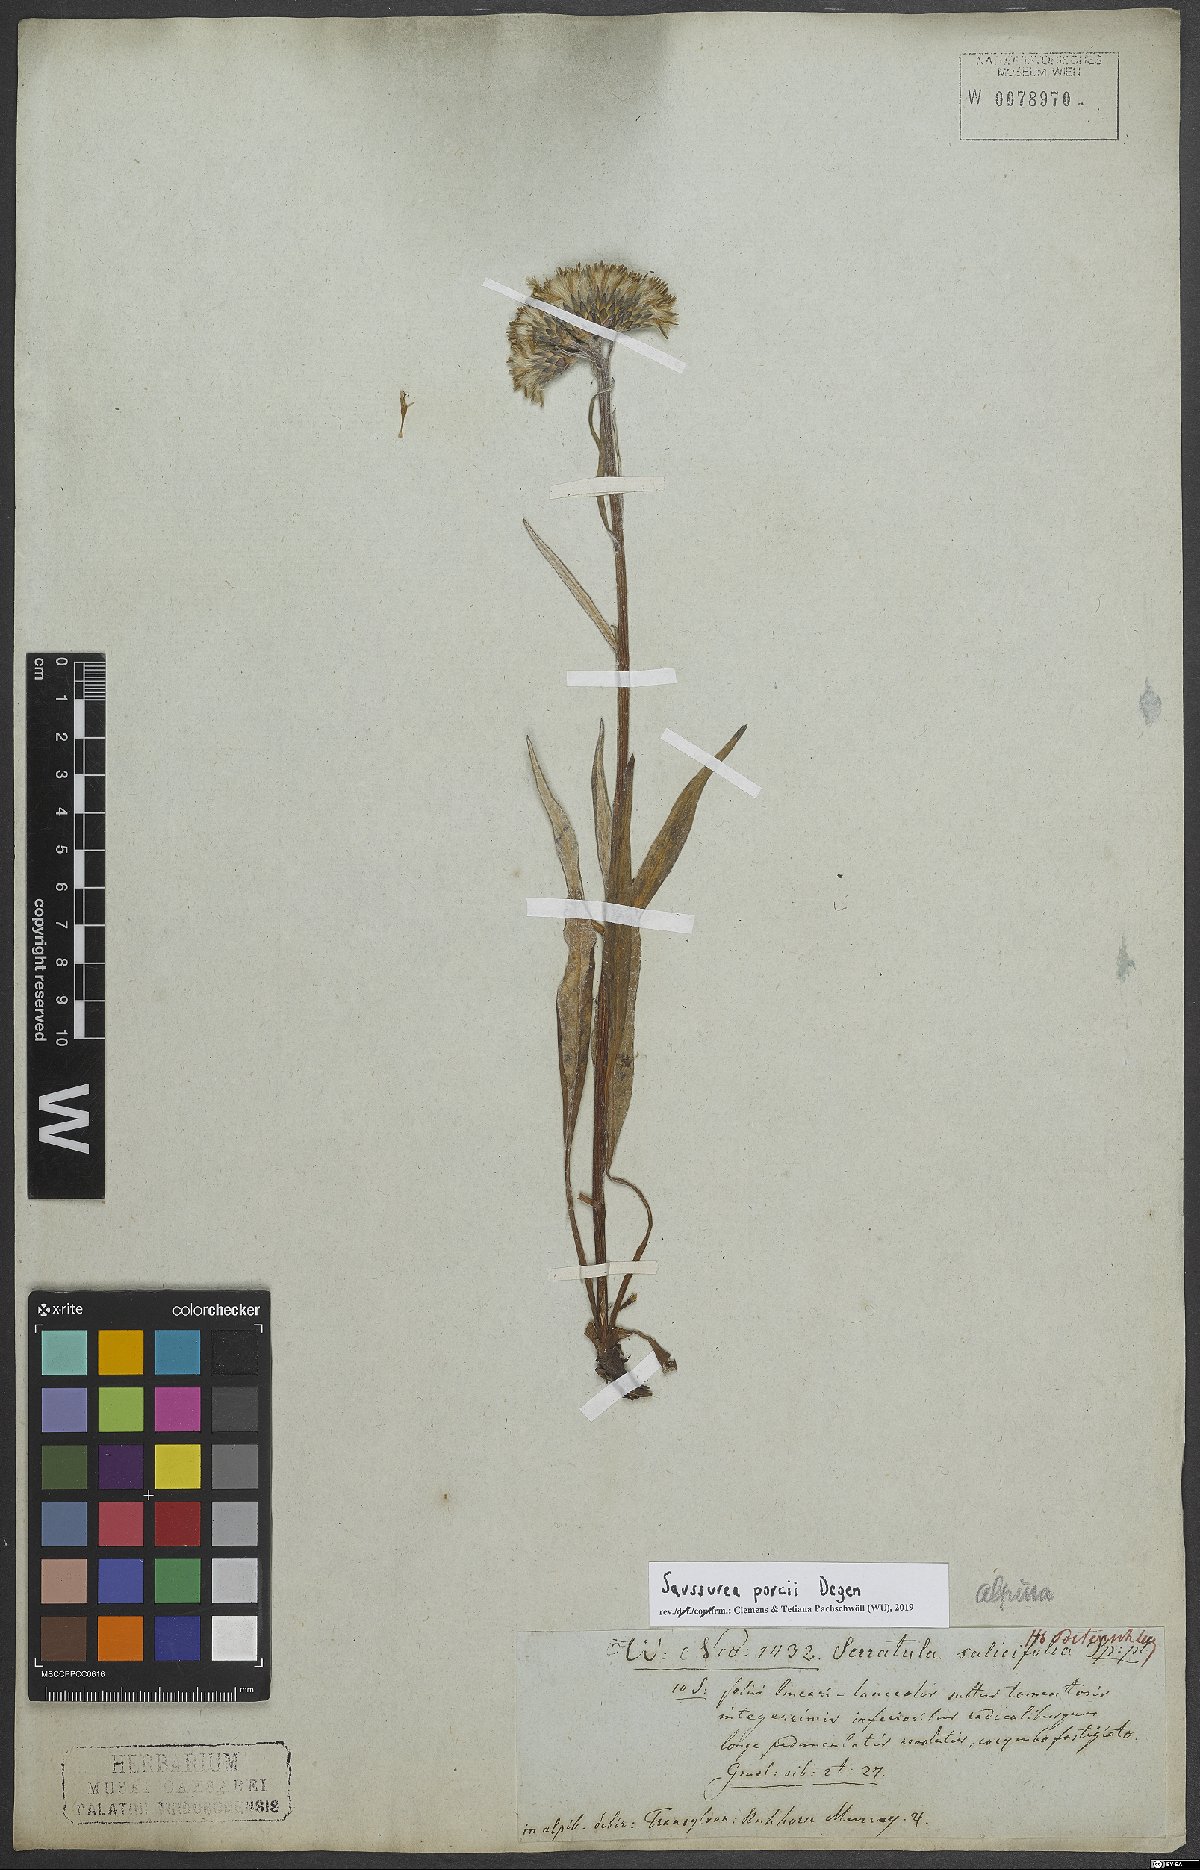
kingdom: Plantae
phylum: Tracheophyta
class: Magnoliopsida
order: Asterales
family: Asteraceae
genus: Saussurea
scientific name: Saussurea porcii
